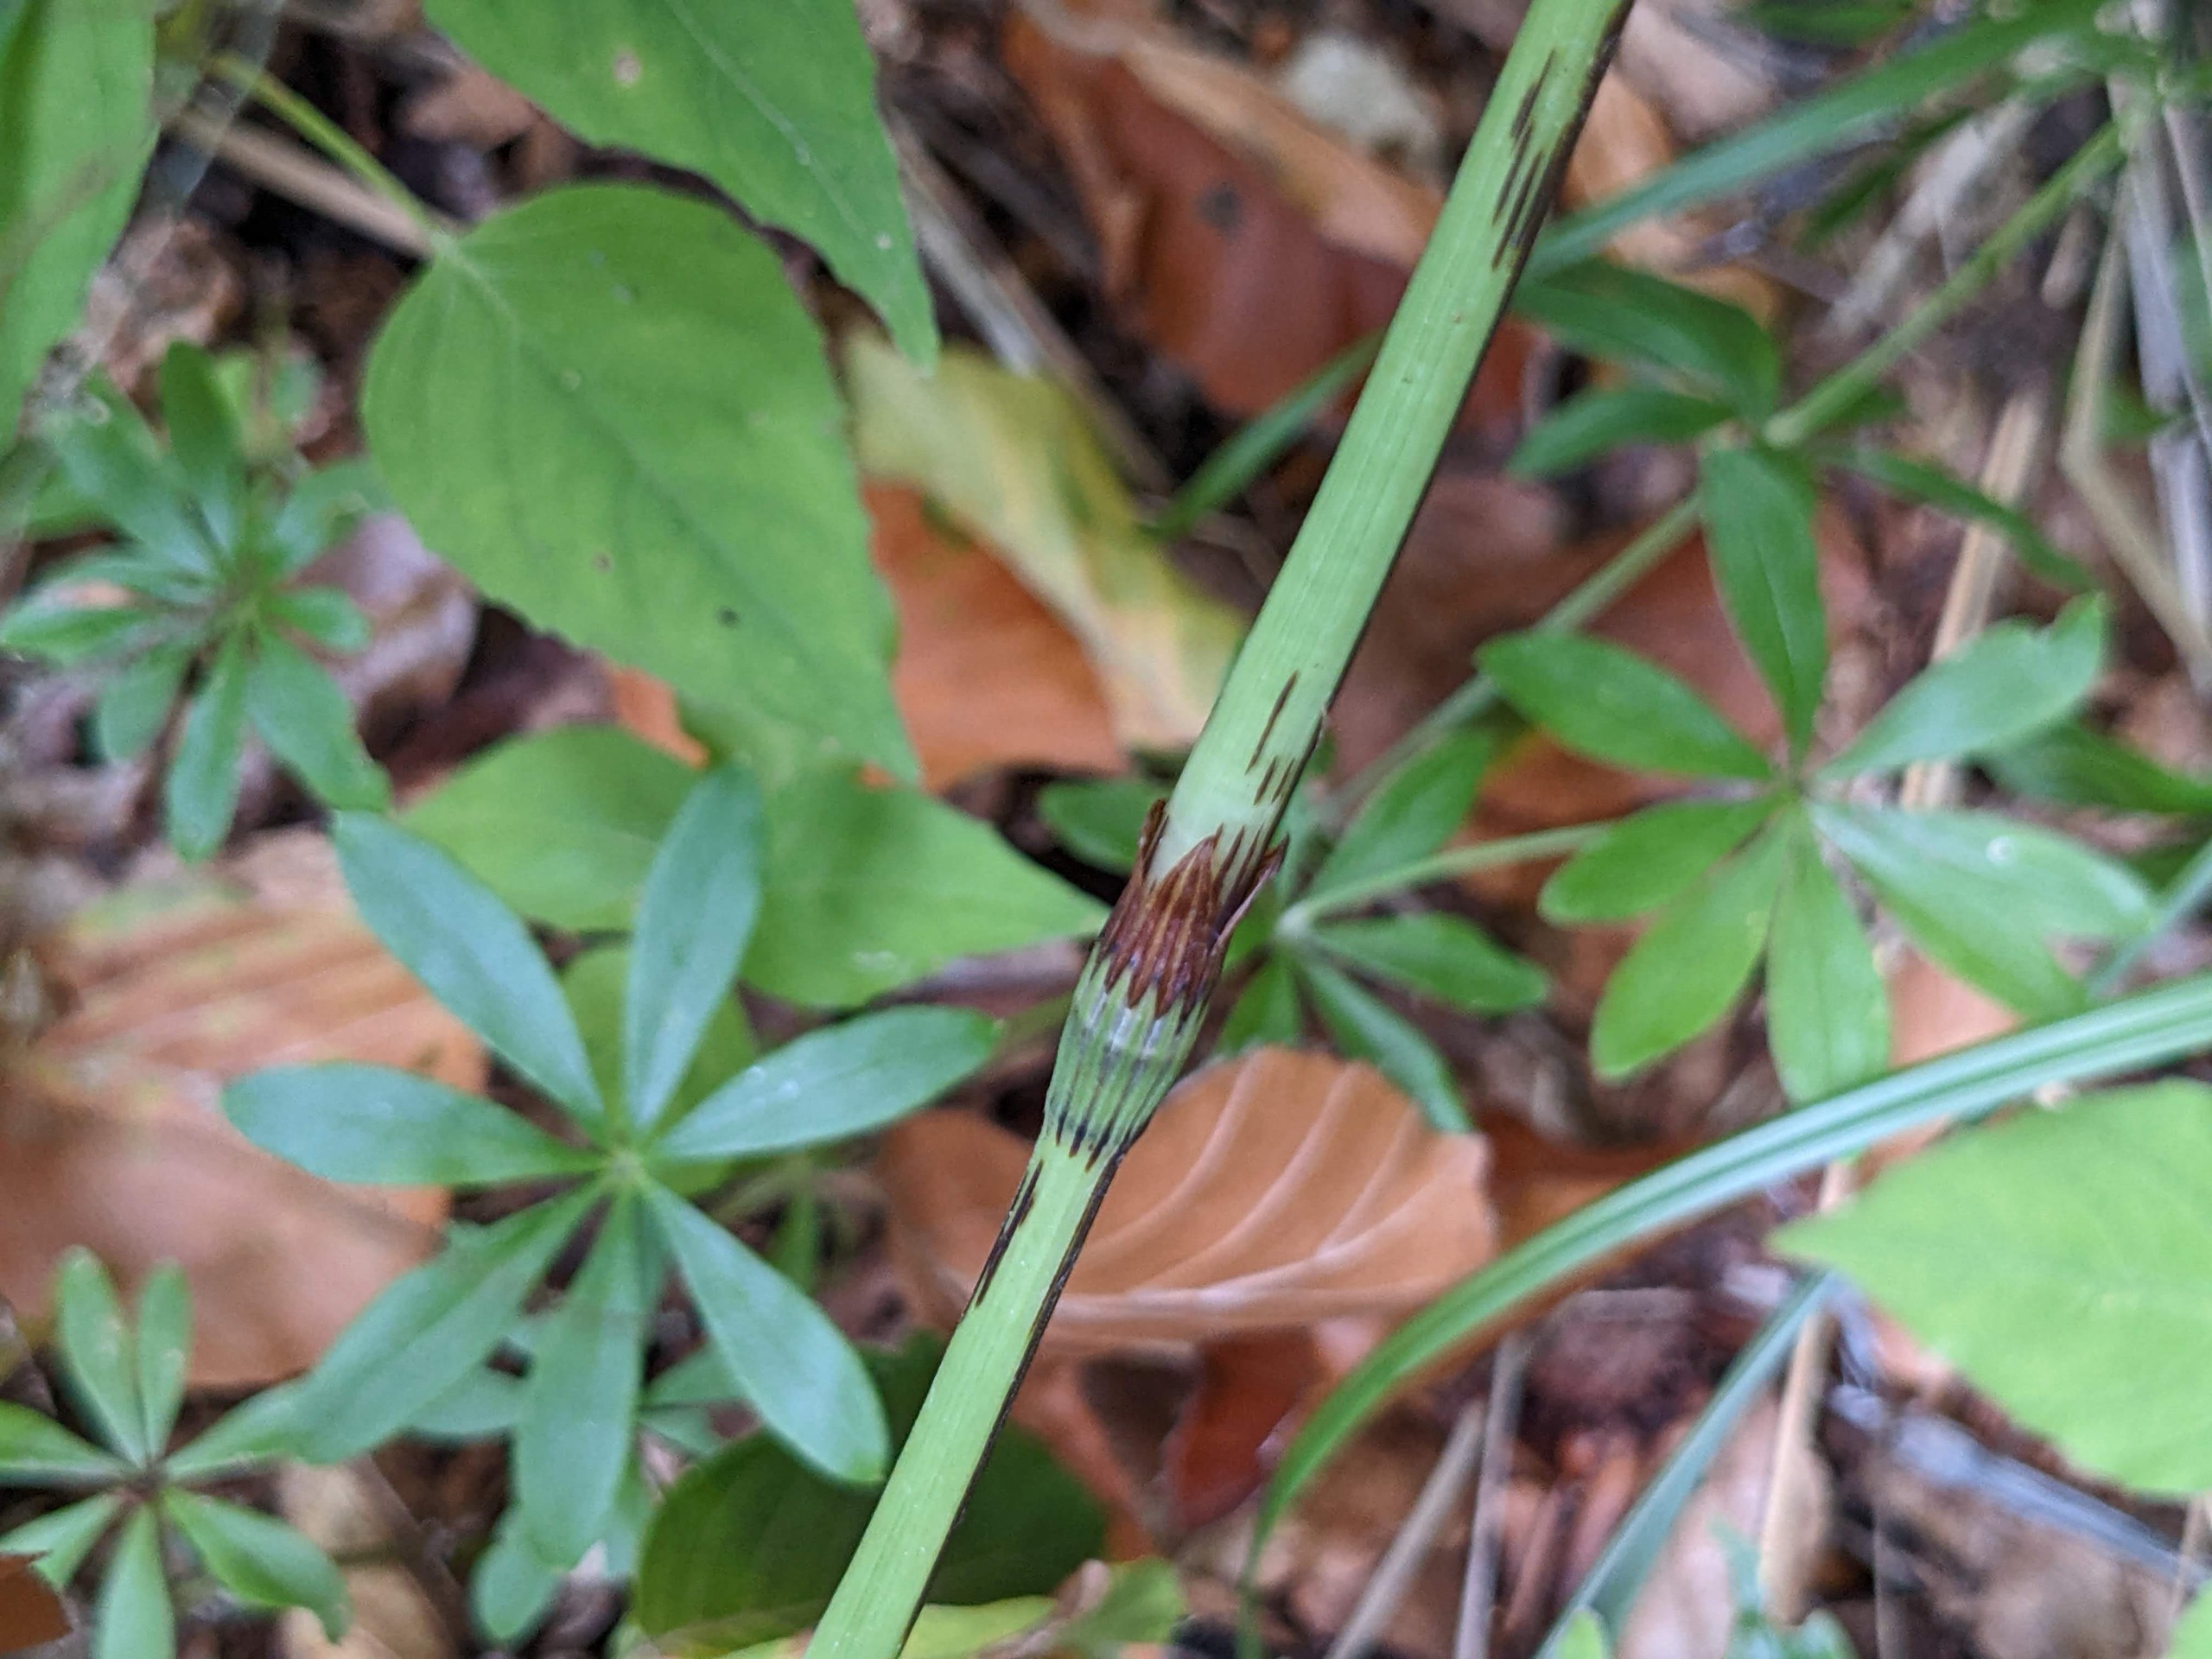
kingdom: Plantae
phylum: Tracheophyta
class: Polypodiopsida
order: Equisetales
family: Equisetaceae
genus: Equisetum
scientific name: Equisetum sylvaticum
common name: Skov-padderok
